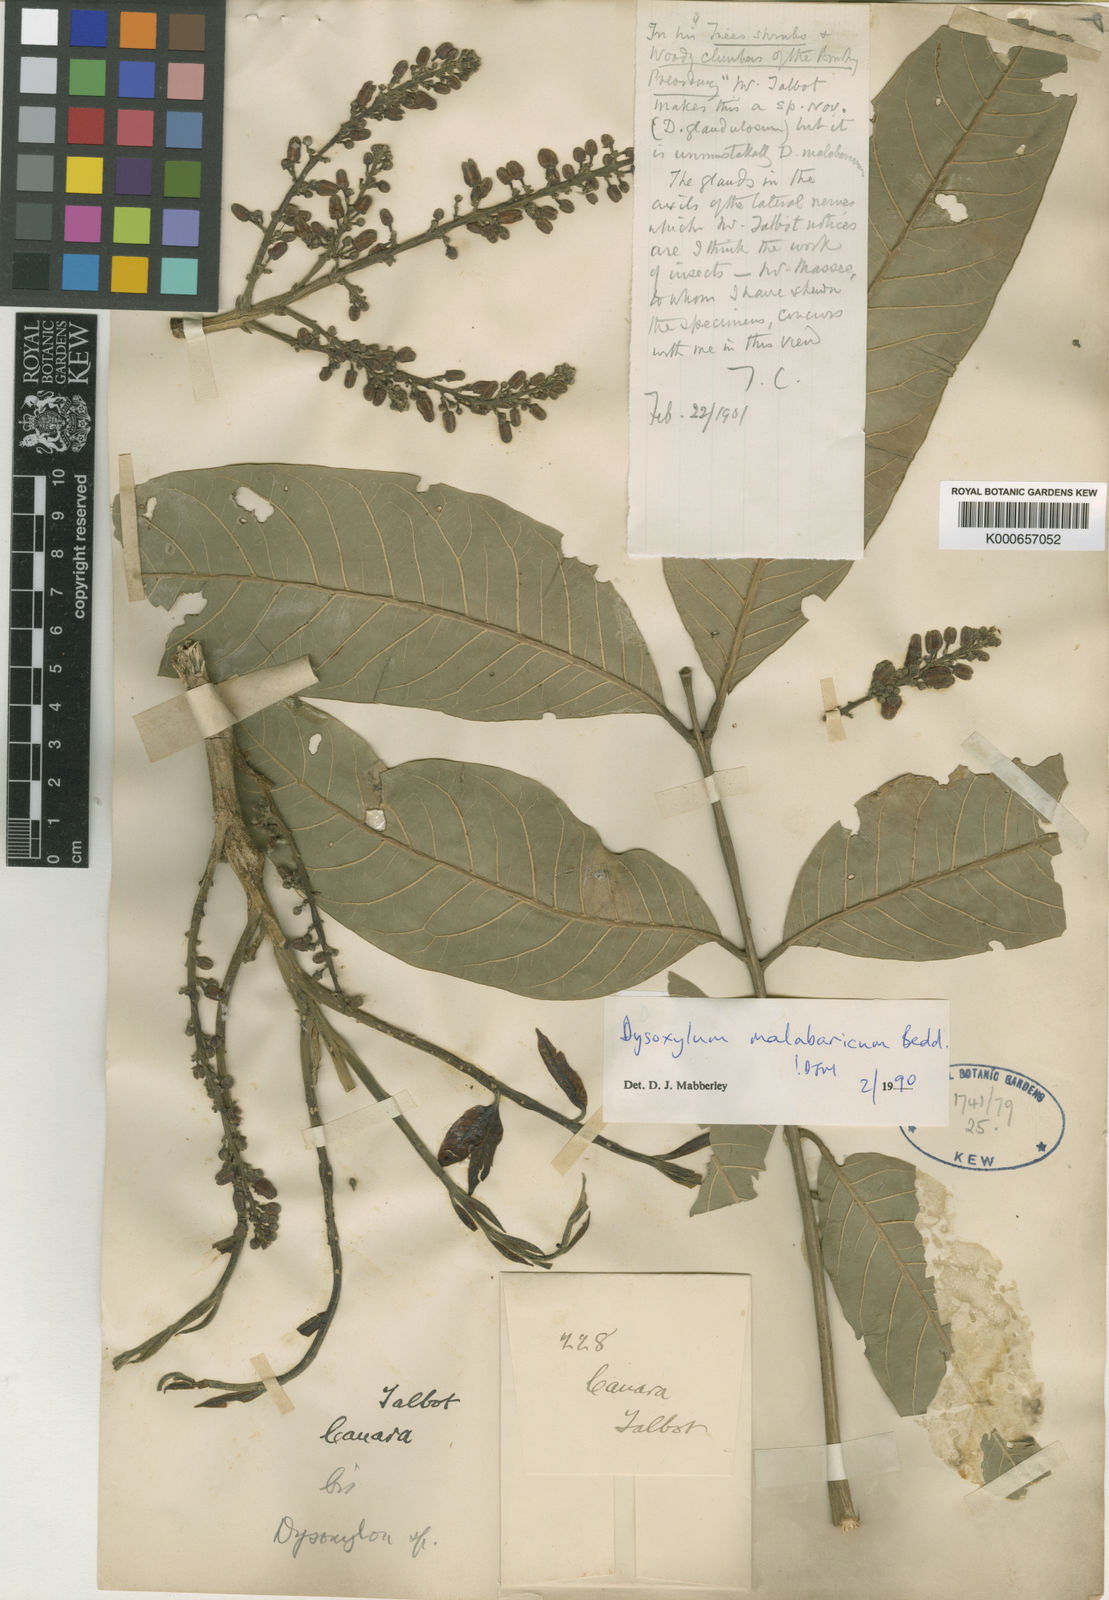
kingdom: Plantae
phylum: Tracheophyta
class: Magnoliopsida
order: Sapindales
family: Meliaceae
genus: Dysoxylum
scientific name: Dysoxylum malabaricum
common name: White cedar
